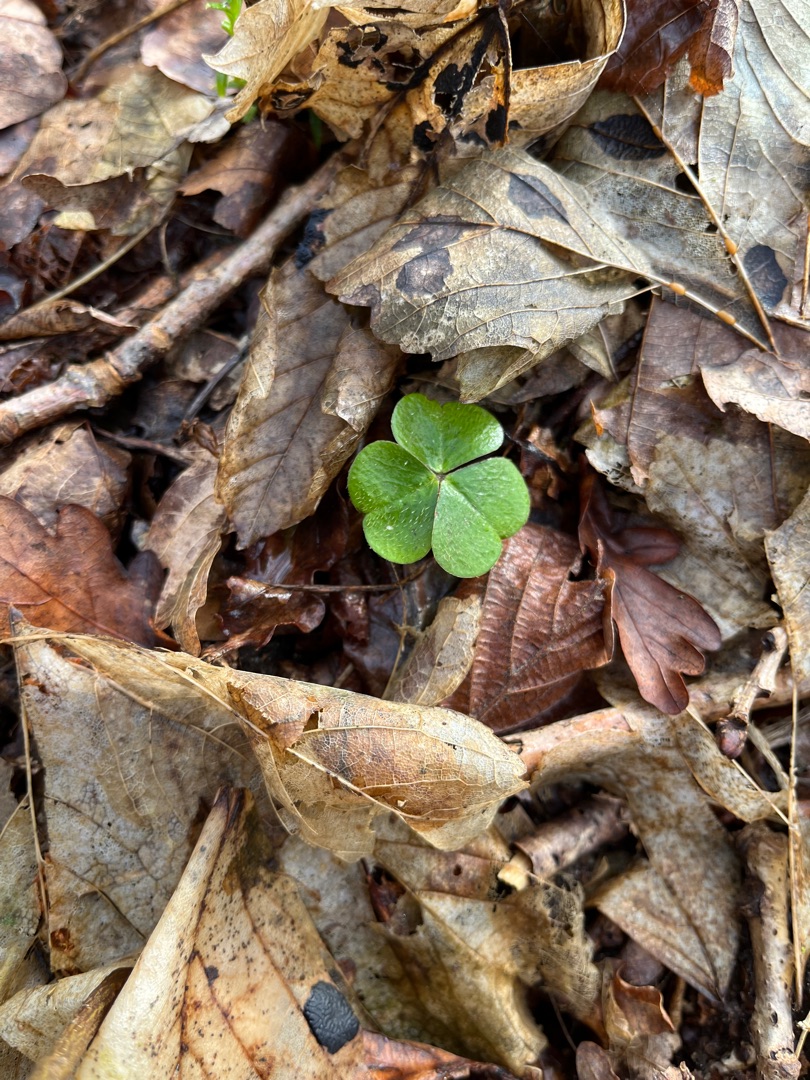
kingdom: Plantae
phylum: Tracheophyta
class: Magnoliopsida
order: Oxalidales
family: Oxalidaceae
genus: Oxalis
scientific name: Oxalis acetosella
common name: Skovsyre
